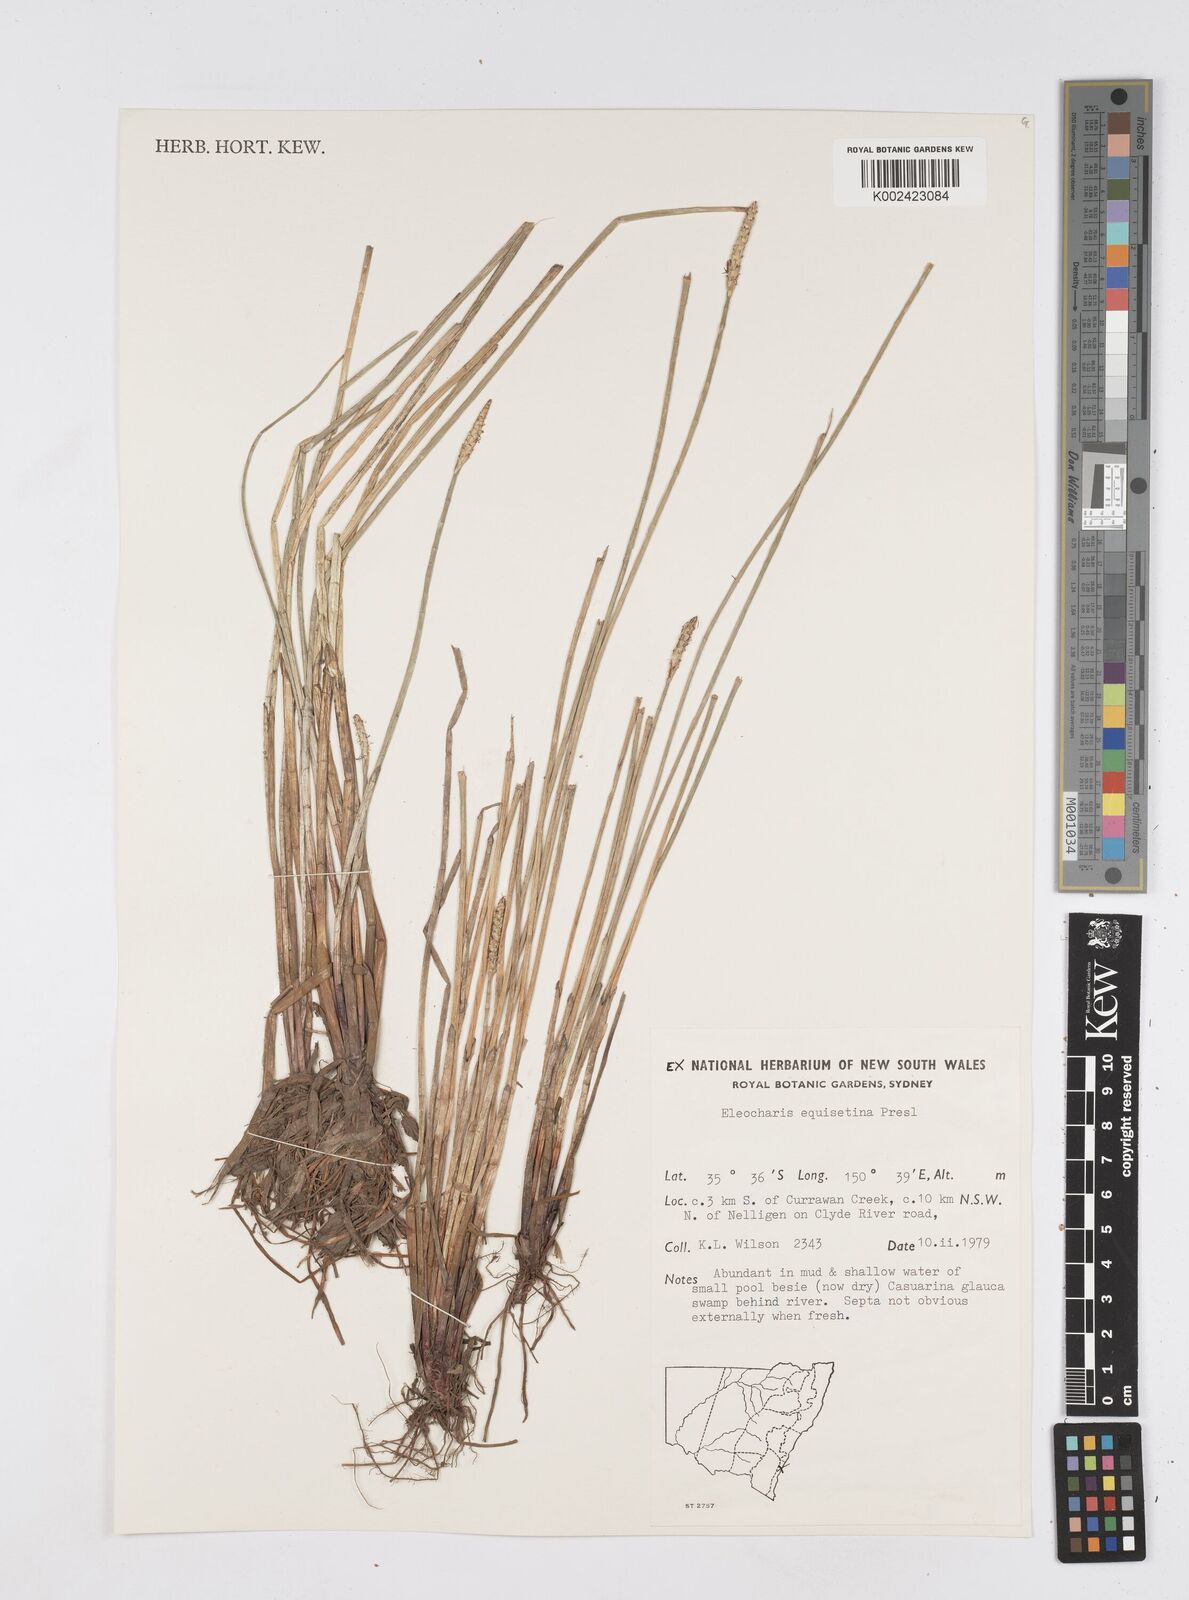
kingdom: Plantae
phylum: Tracheophyta
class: Liliopsida
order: Poales
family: Cyperaceae
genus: Eleocharis
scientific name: Eleocharis dulcis
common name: Chinese water chestnut
